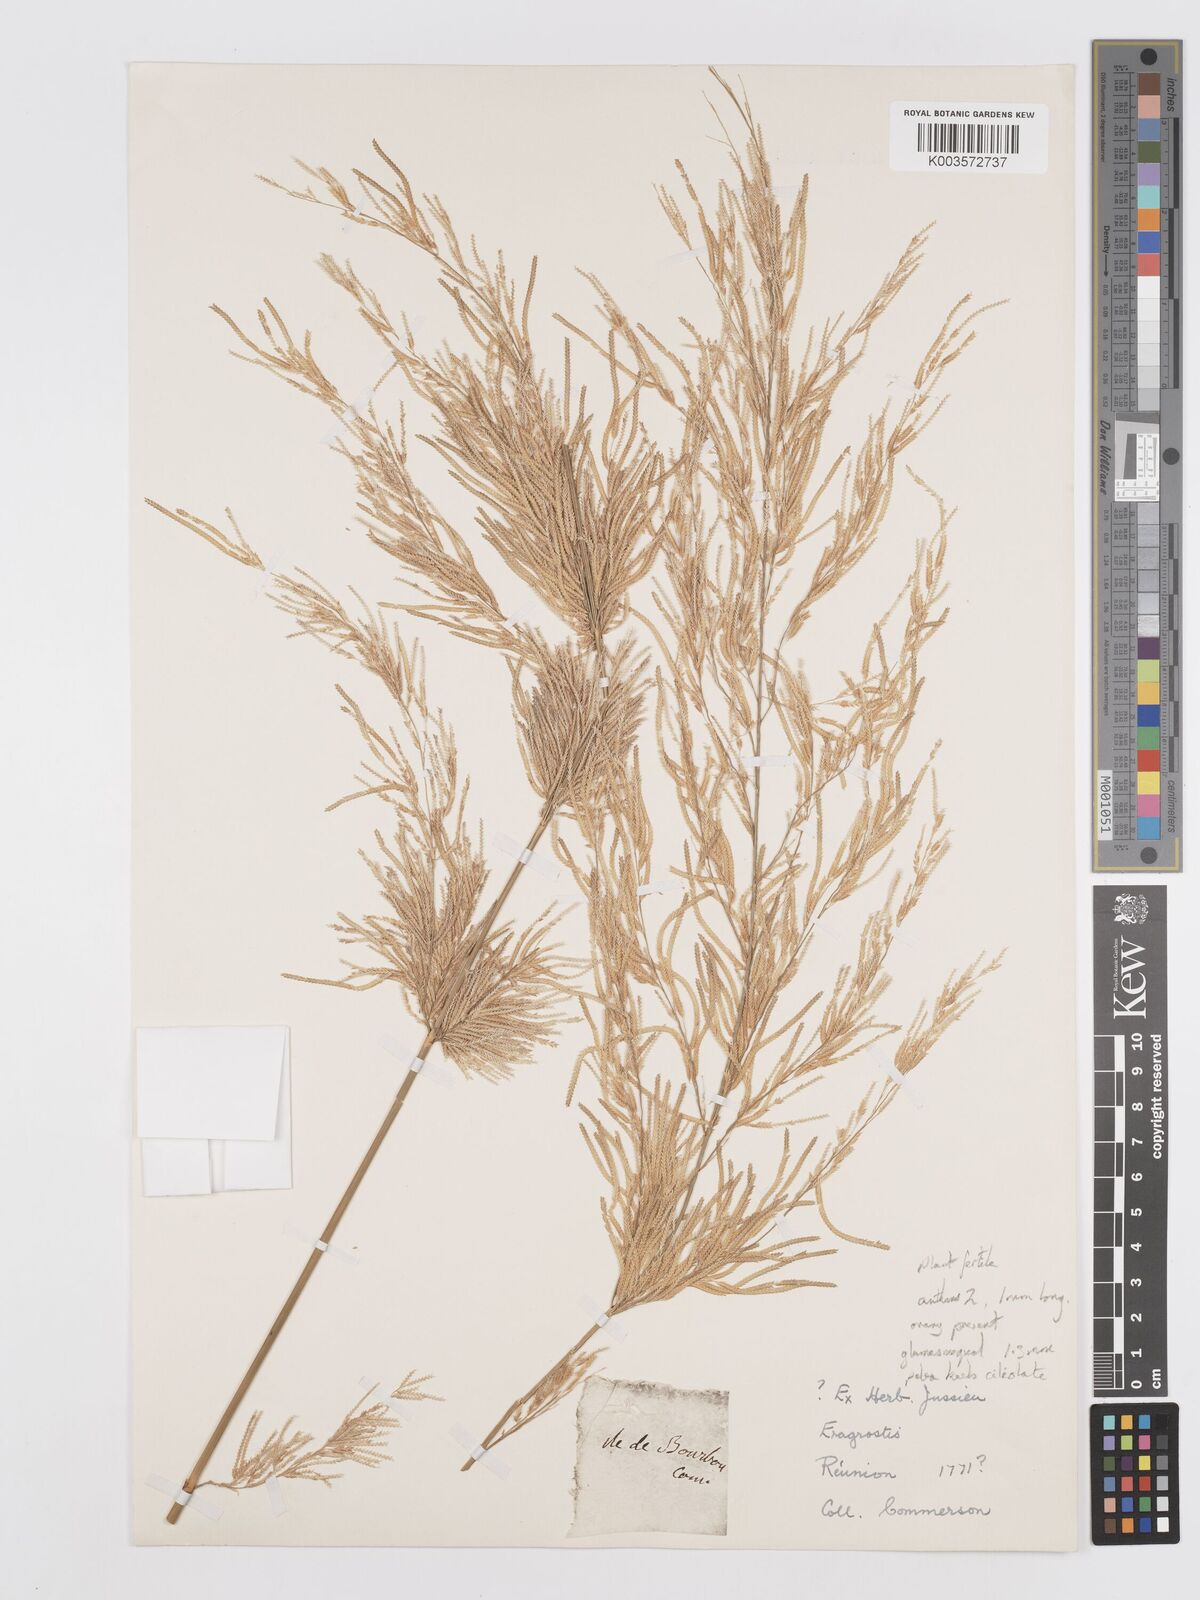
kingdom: Plantae
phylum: Tracheophyta
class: Liliopsida
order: Poales
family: Poaceae
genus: Eragrostis
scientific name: Eragrostis tremula
